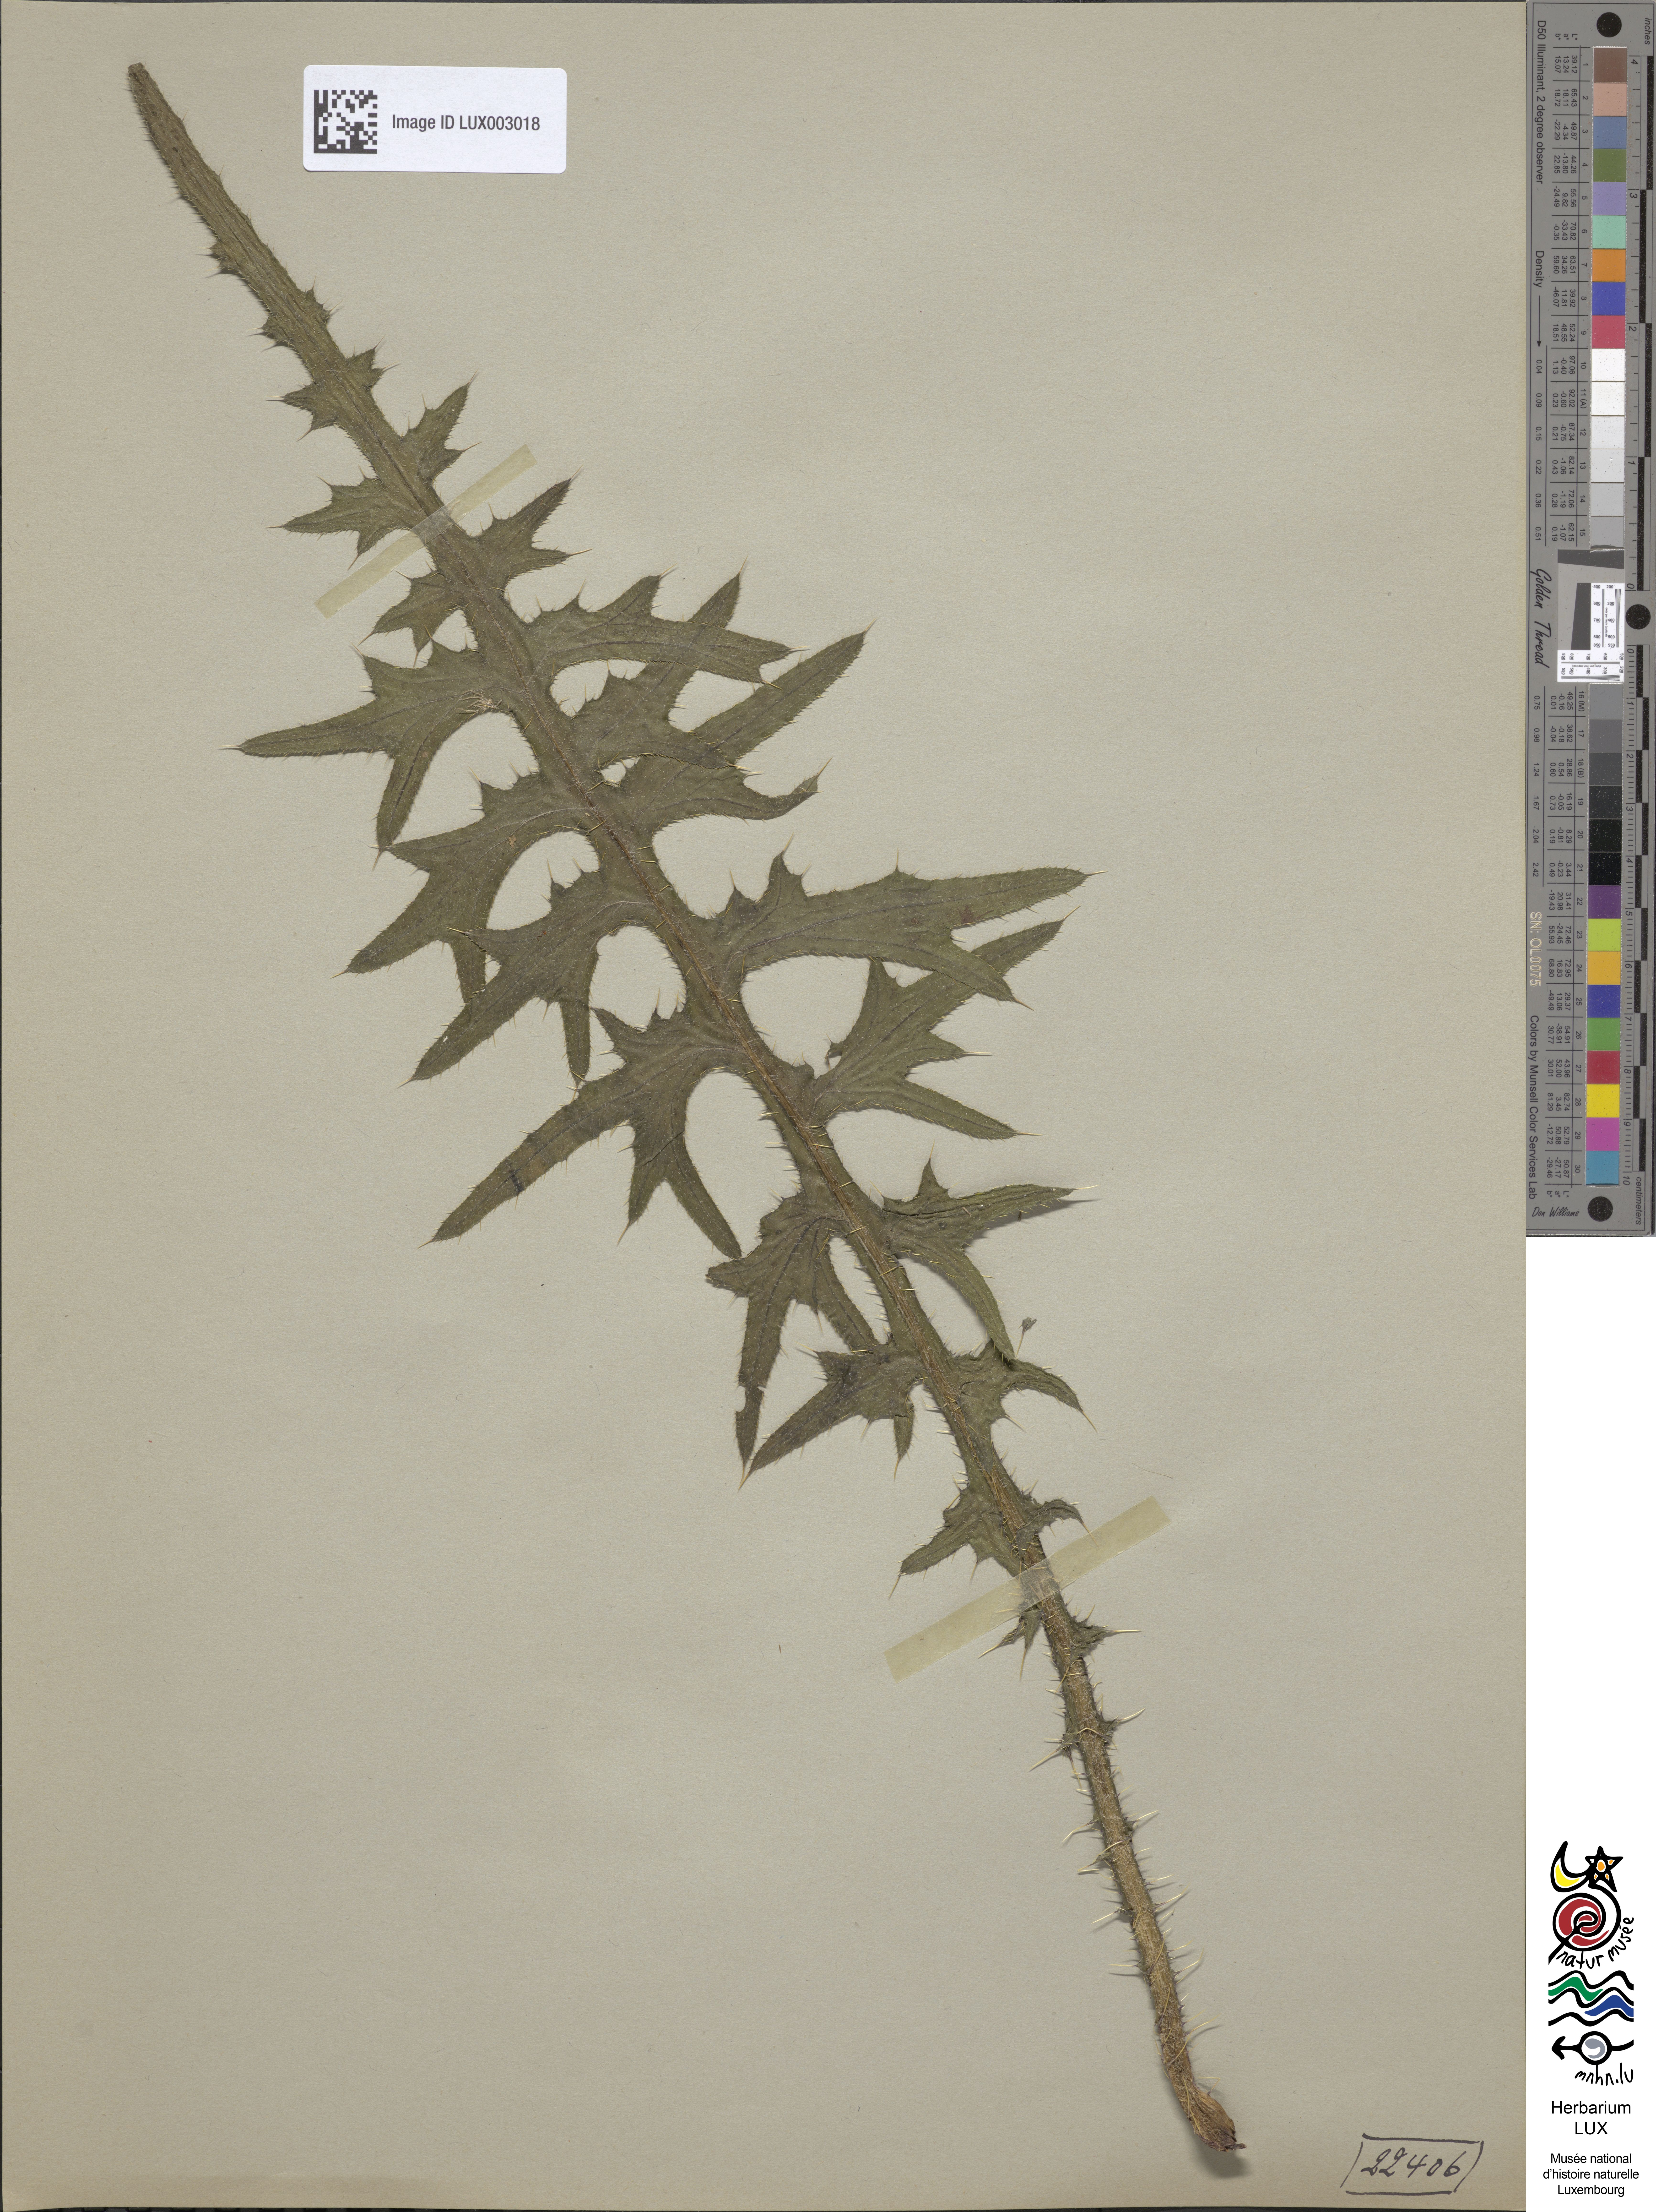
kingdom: Plantae
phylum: Tracheophyta
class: Magnoliopsida
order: Asterales
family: Asteraceae
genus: Cirsium
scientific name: Cirsium palustre
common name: Marsh thistle
